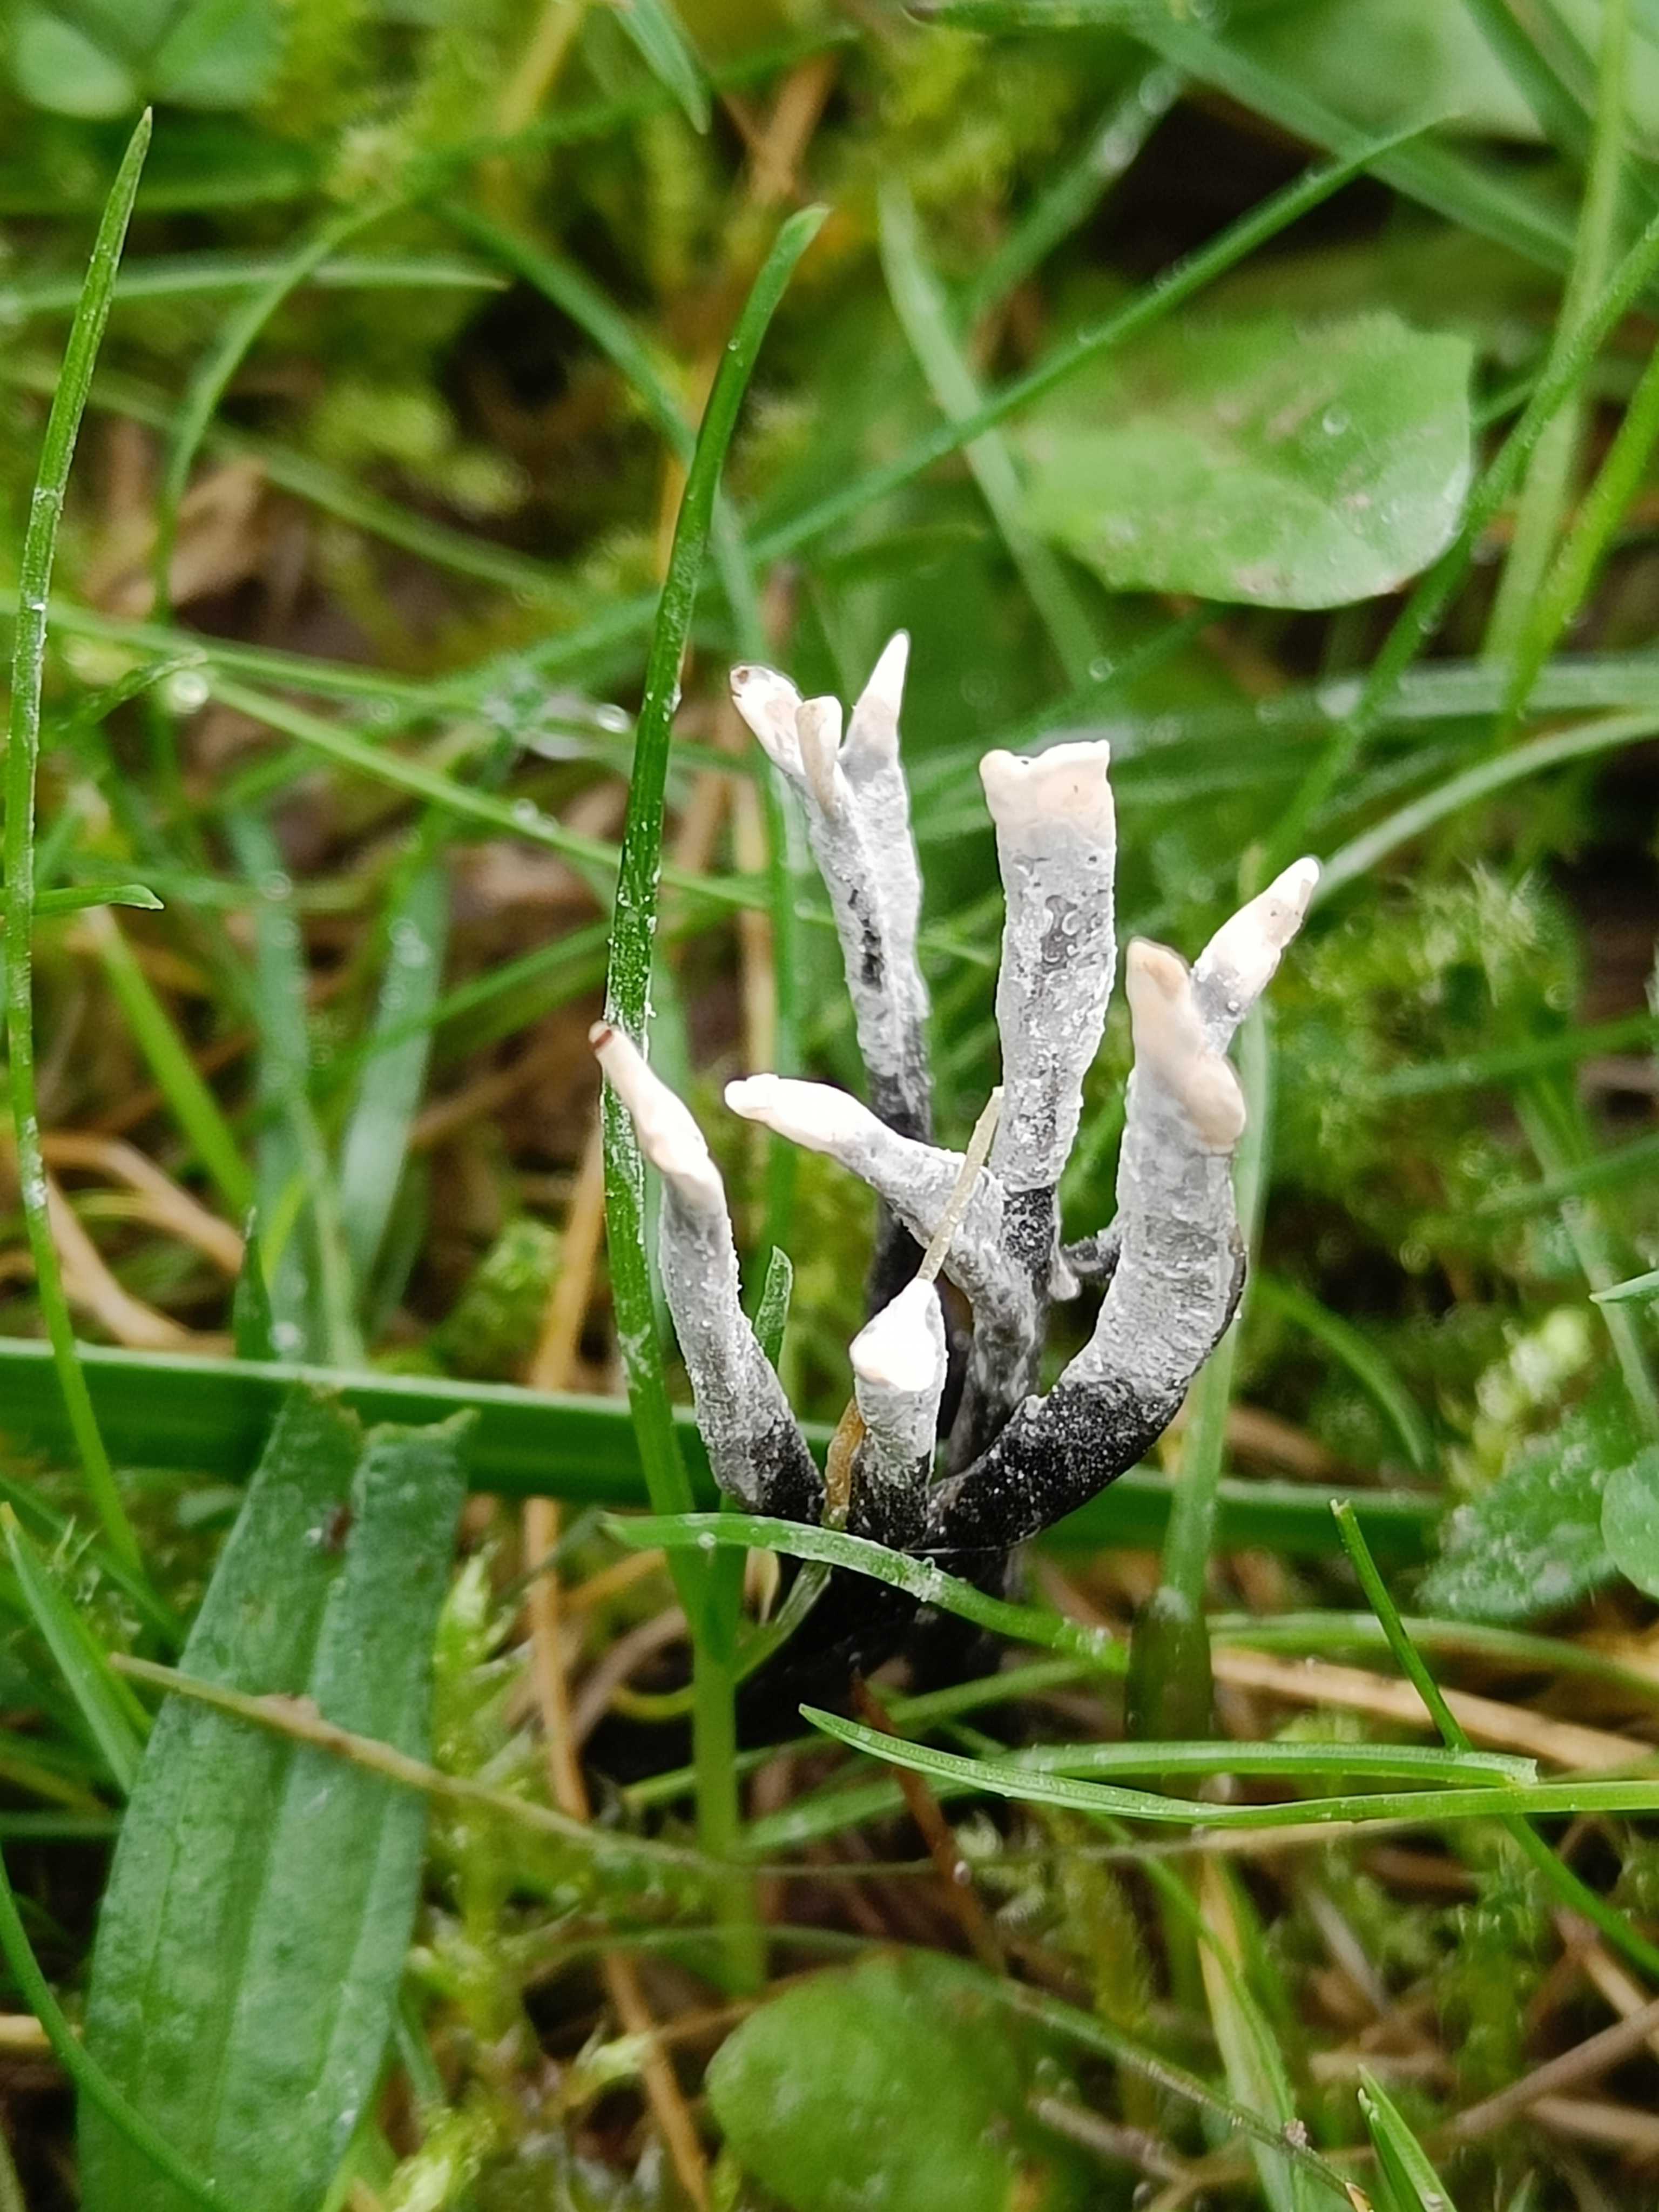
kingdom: Fungi
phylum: Ascomycota
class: Sordariomycetes
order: Xylariales
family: Xylariaceae
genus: Xylaria
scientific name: Xylaria hypoxylon
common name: grenet stødsvamp
